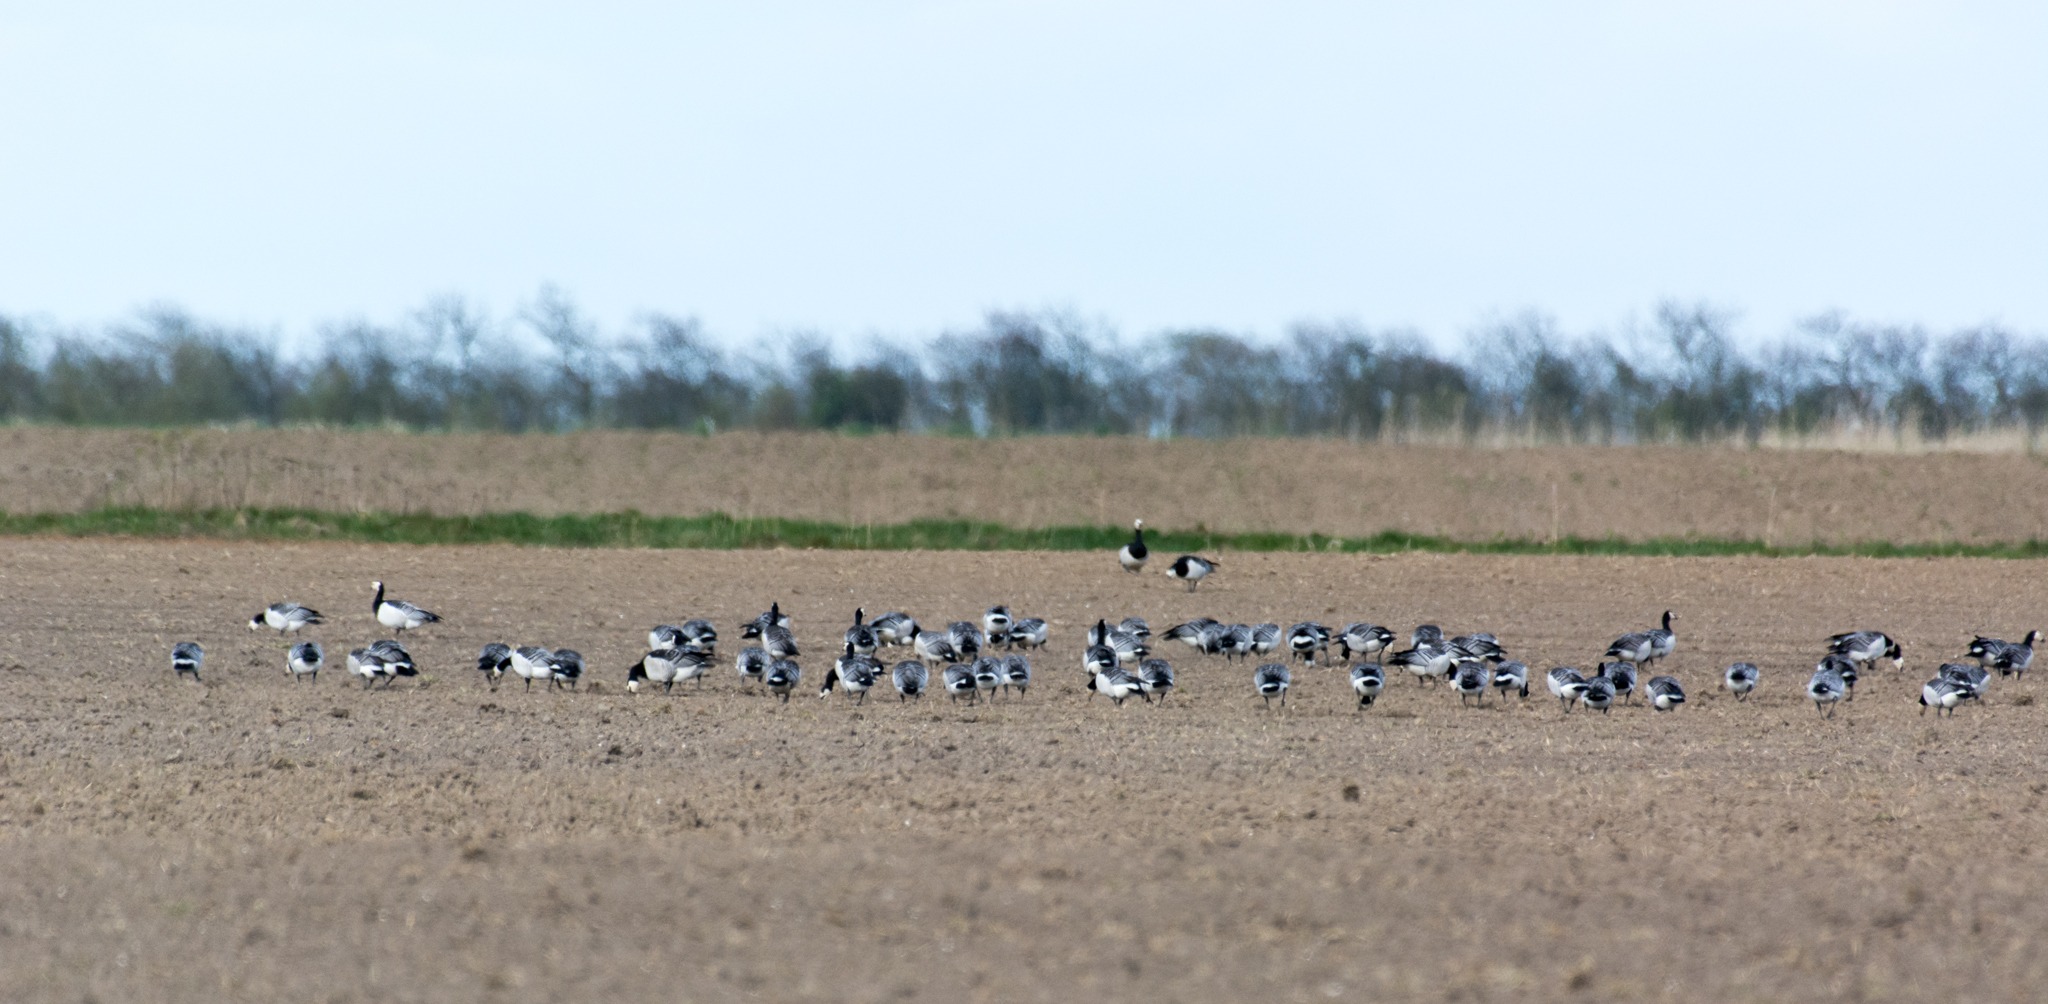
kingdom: Animalia
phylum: Chordata
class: Aves
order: Anseriformes
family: Anatidae
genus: Branta
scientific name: Branta leucopsis
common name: Bramgås
